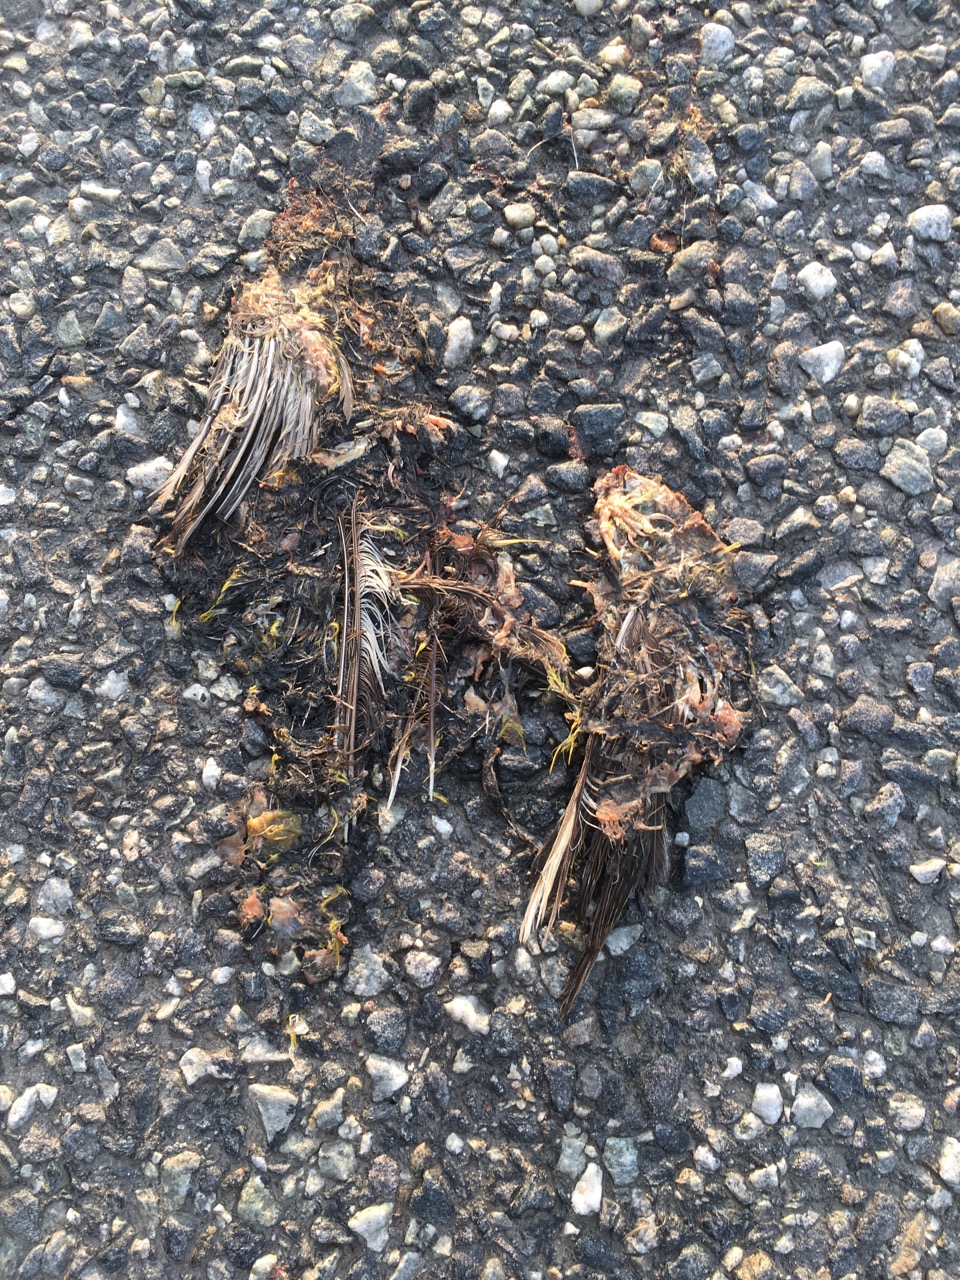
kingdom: Animalia
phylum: Chordata
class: Aves
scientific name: Aves
